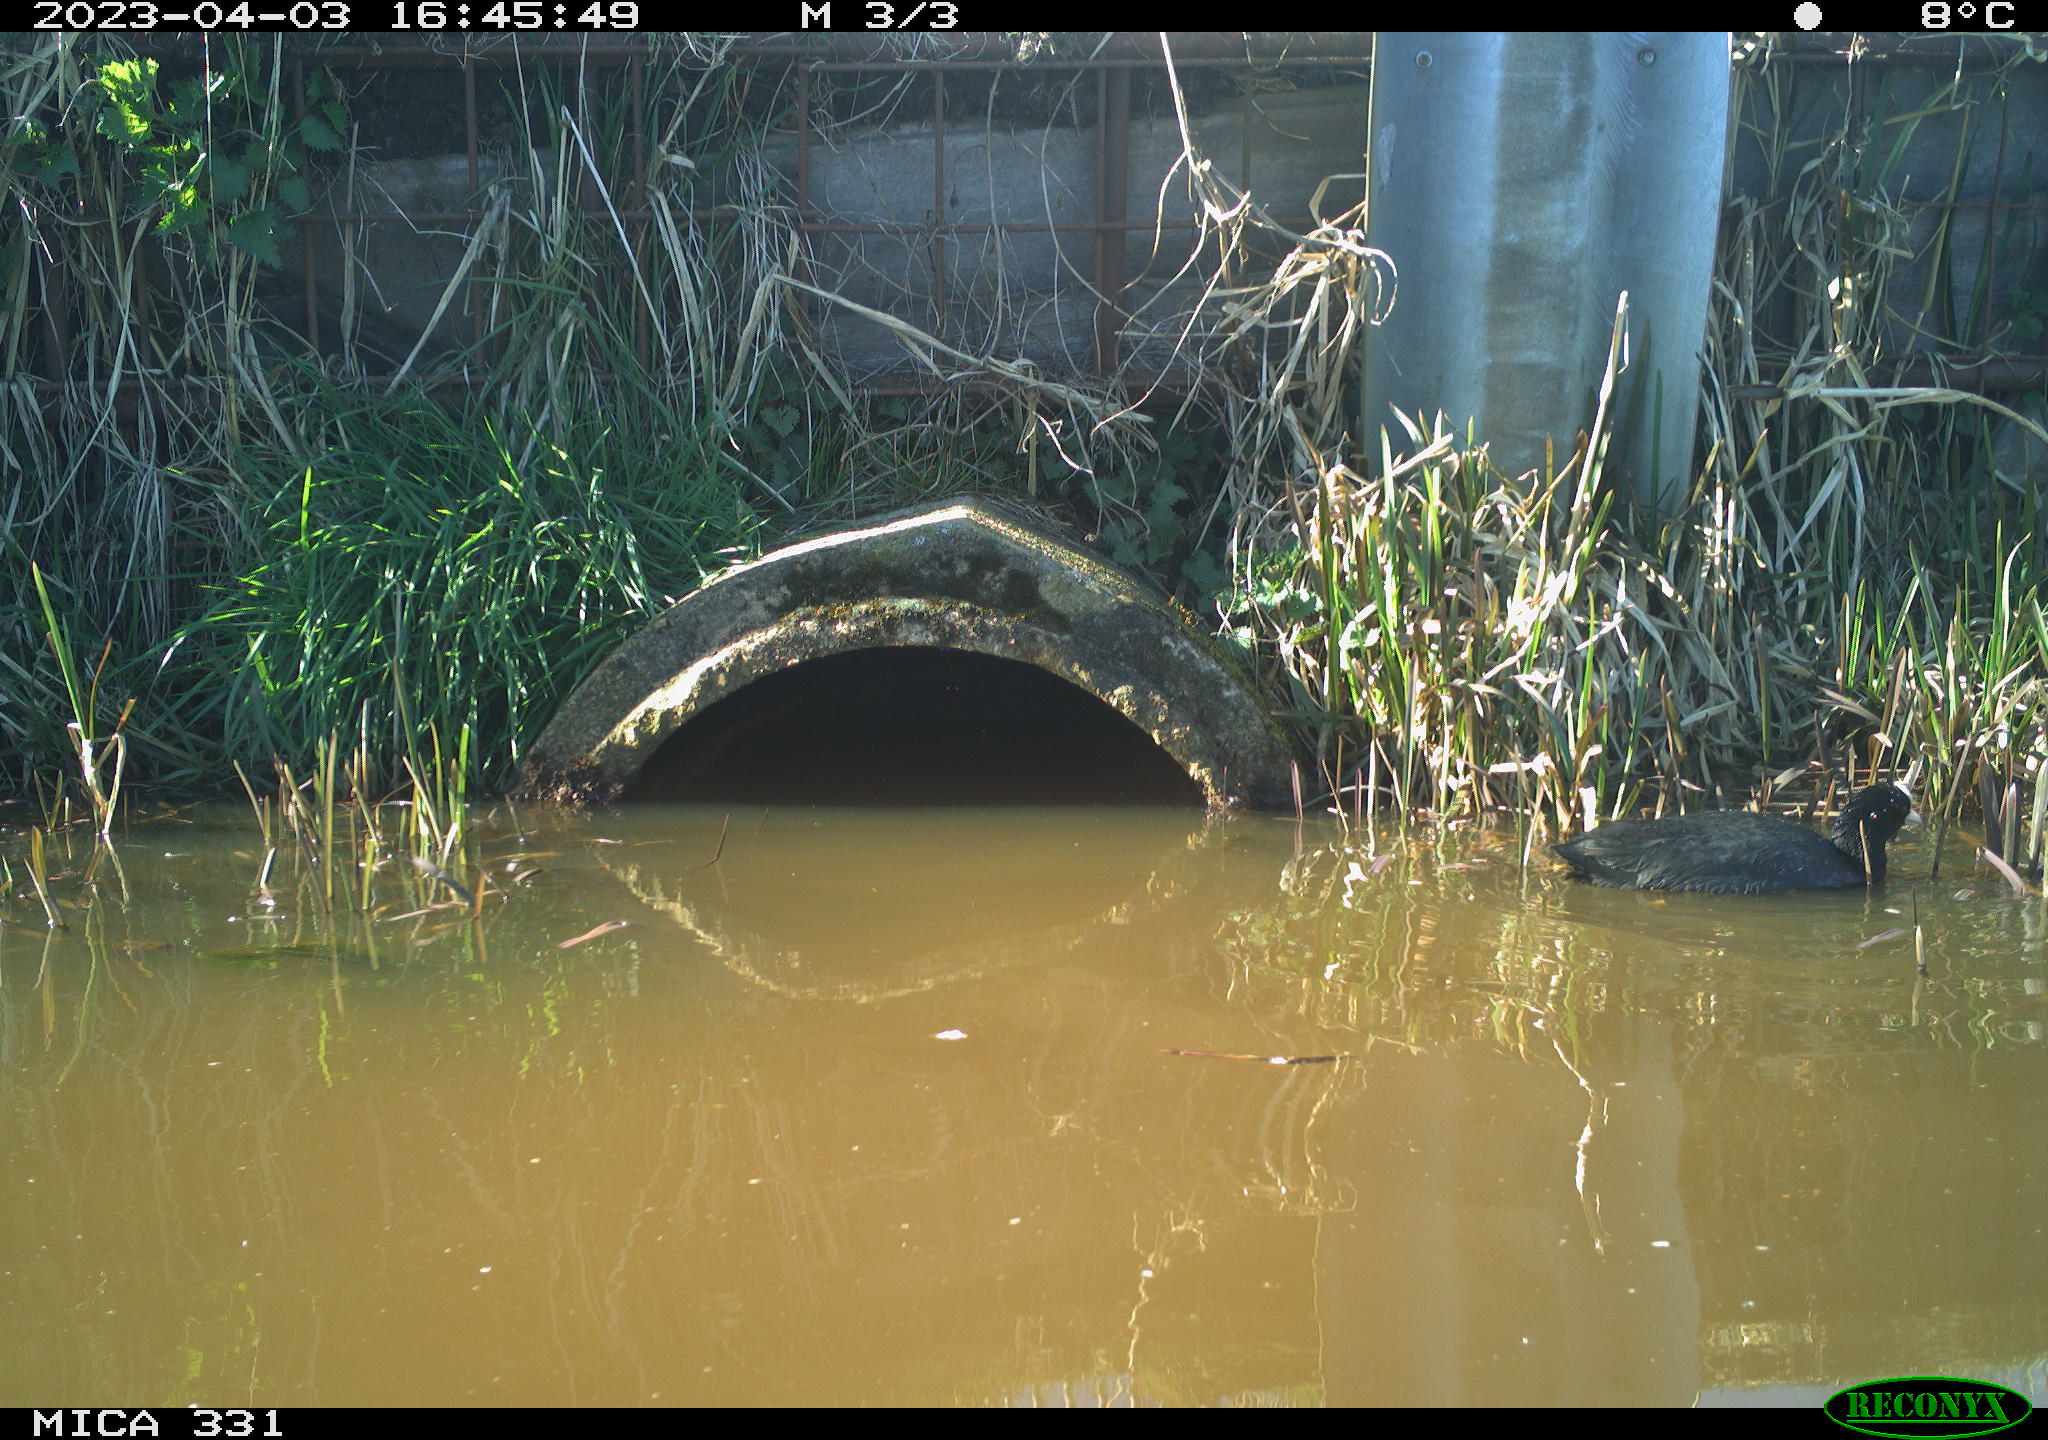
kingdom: Animalia
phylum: Chordata
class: Aves
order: Gruiformes
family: Rallidae
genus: Fulica
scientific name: Fulica atra
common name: Eurasian coot
